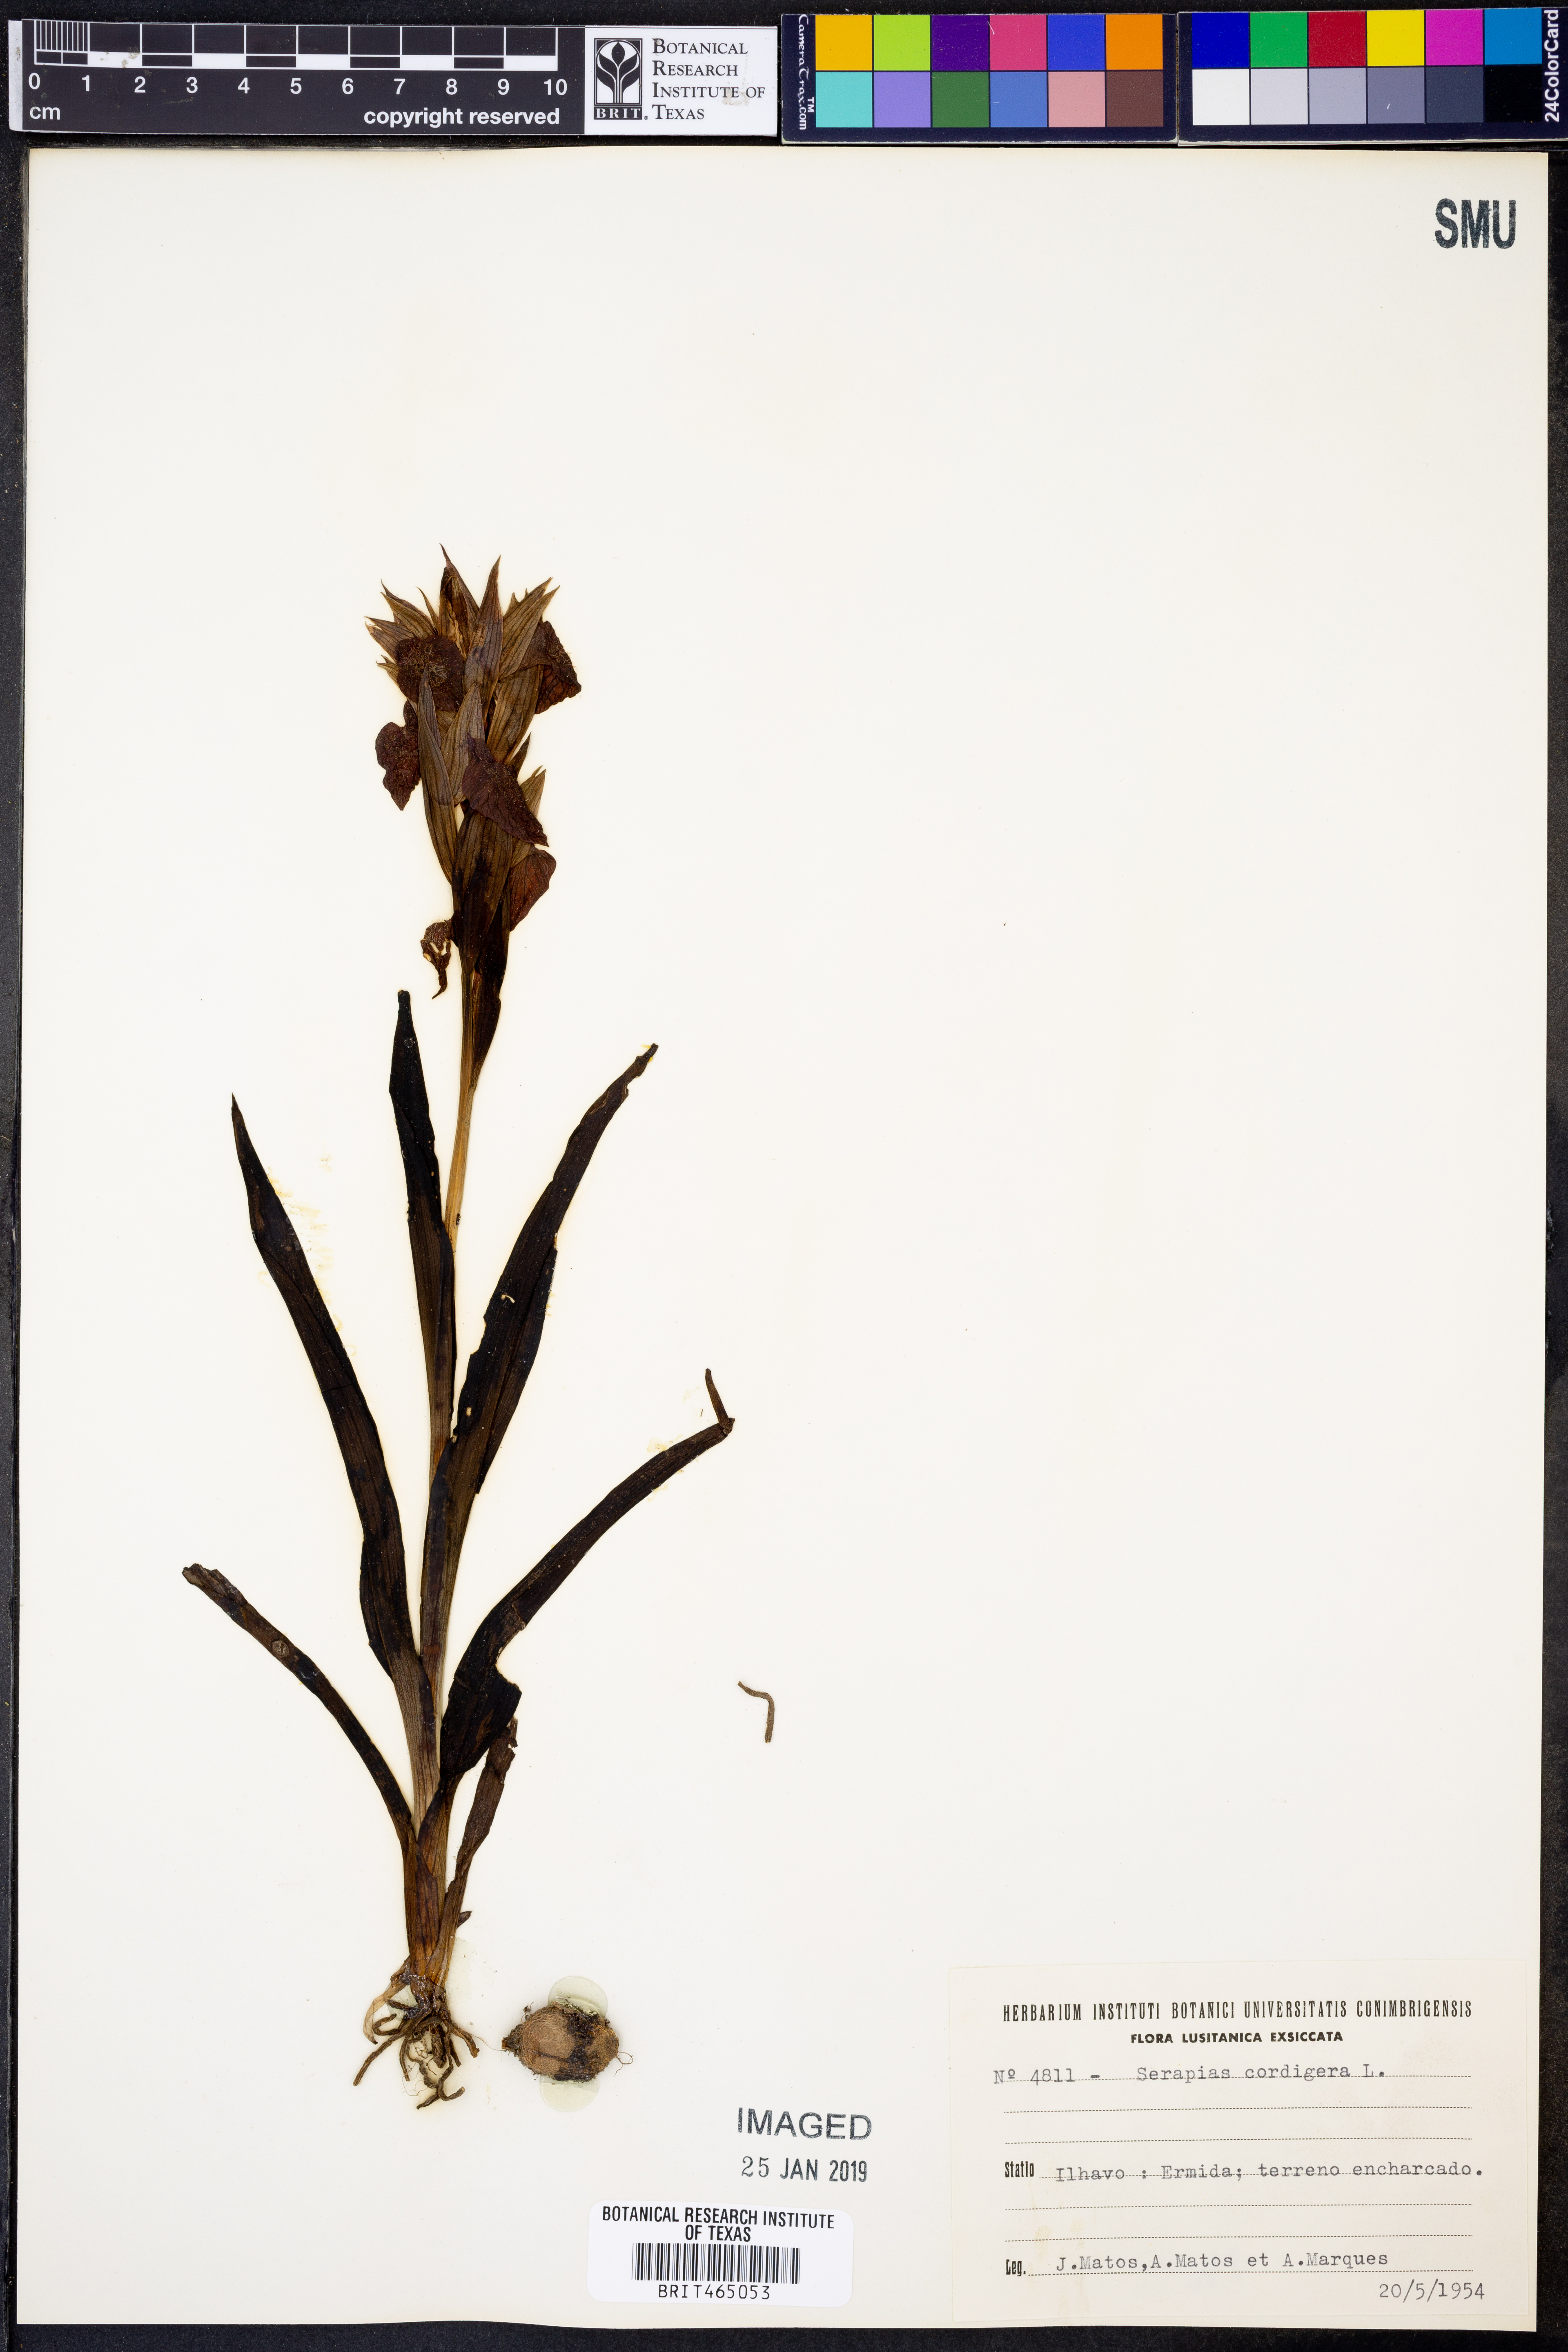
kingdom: Plantae
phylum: Tracheophyta
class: Liliopsida
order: Asparagales
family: Orchidaceae
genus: Serapias
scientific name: Serapias cordigera
